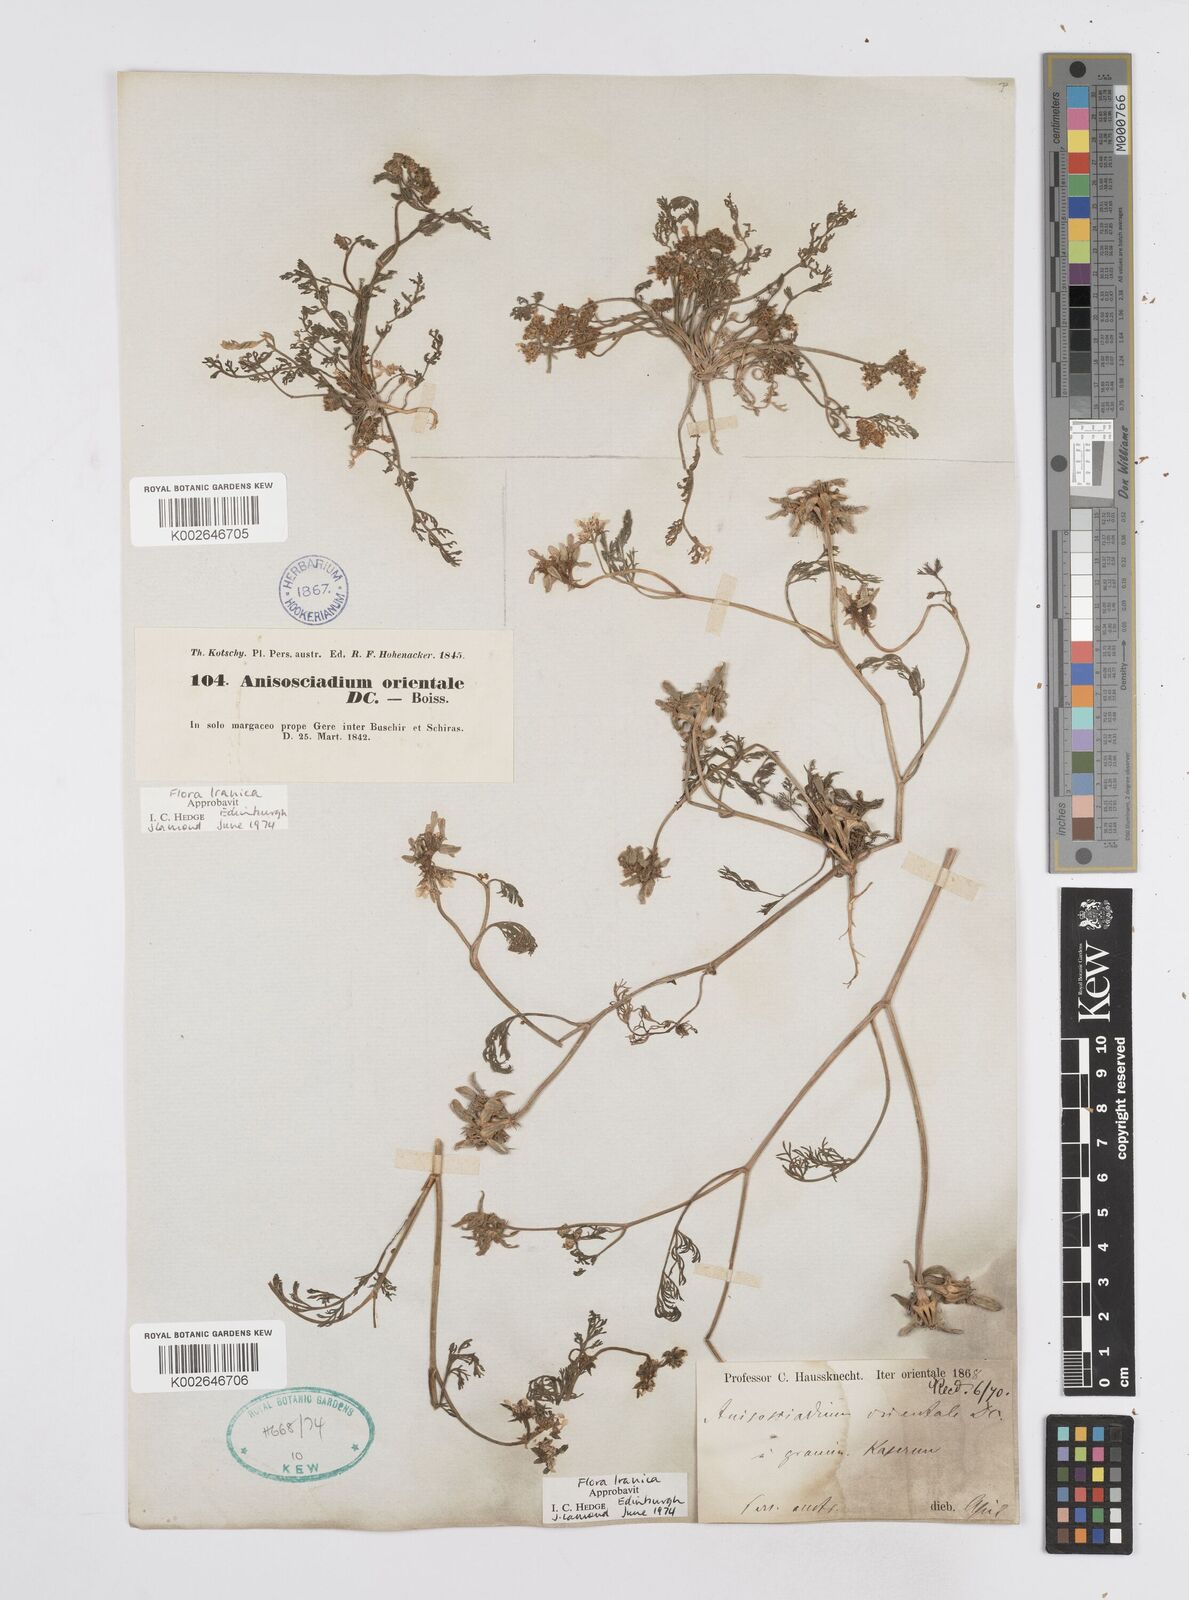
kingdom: Plantae
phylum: Tracheophyta
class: Magnoliopsida
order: Apiales
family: Apiaceae
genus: Anisosciadium
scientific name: Anisosciadium orientale
